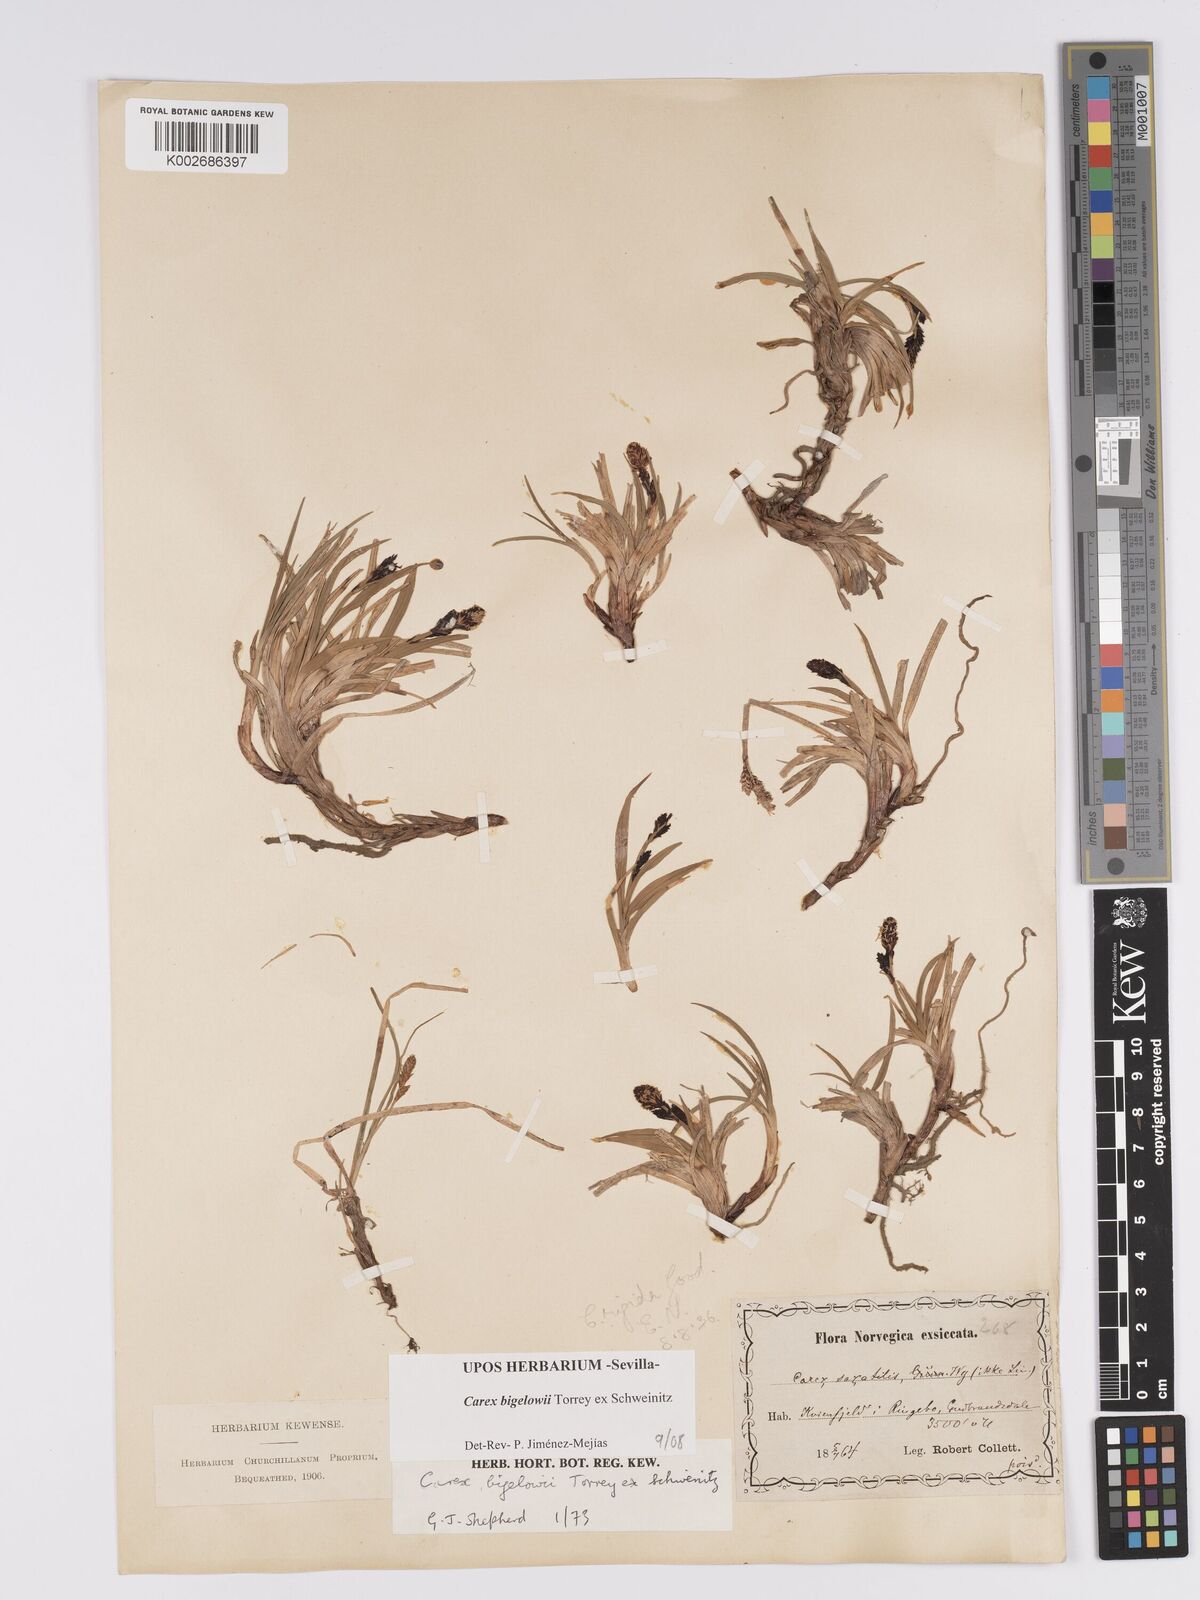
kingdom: Plantae
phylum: Tracheophyta
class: Liliopsida
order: Poales
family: Cyperaceae
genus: Carex
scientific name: Carex bigelowii
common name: Stiff sedge
